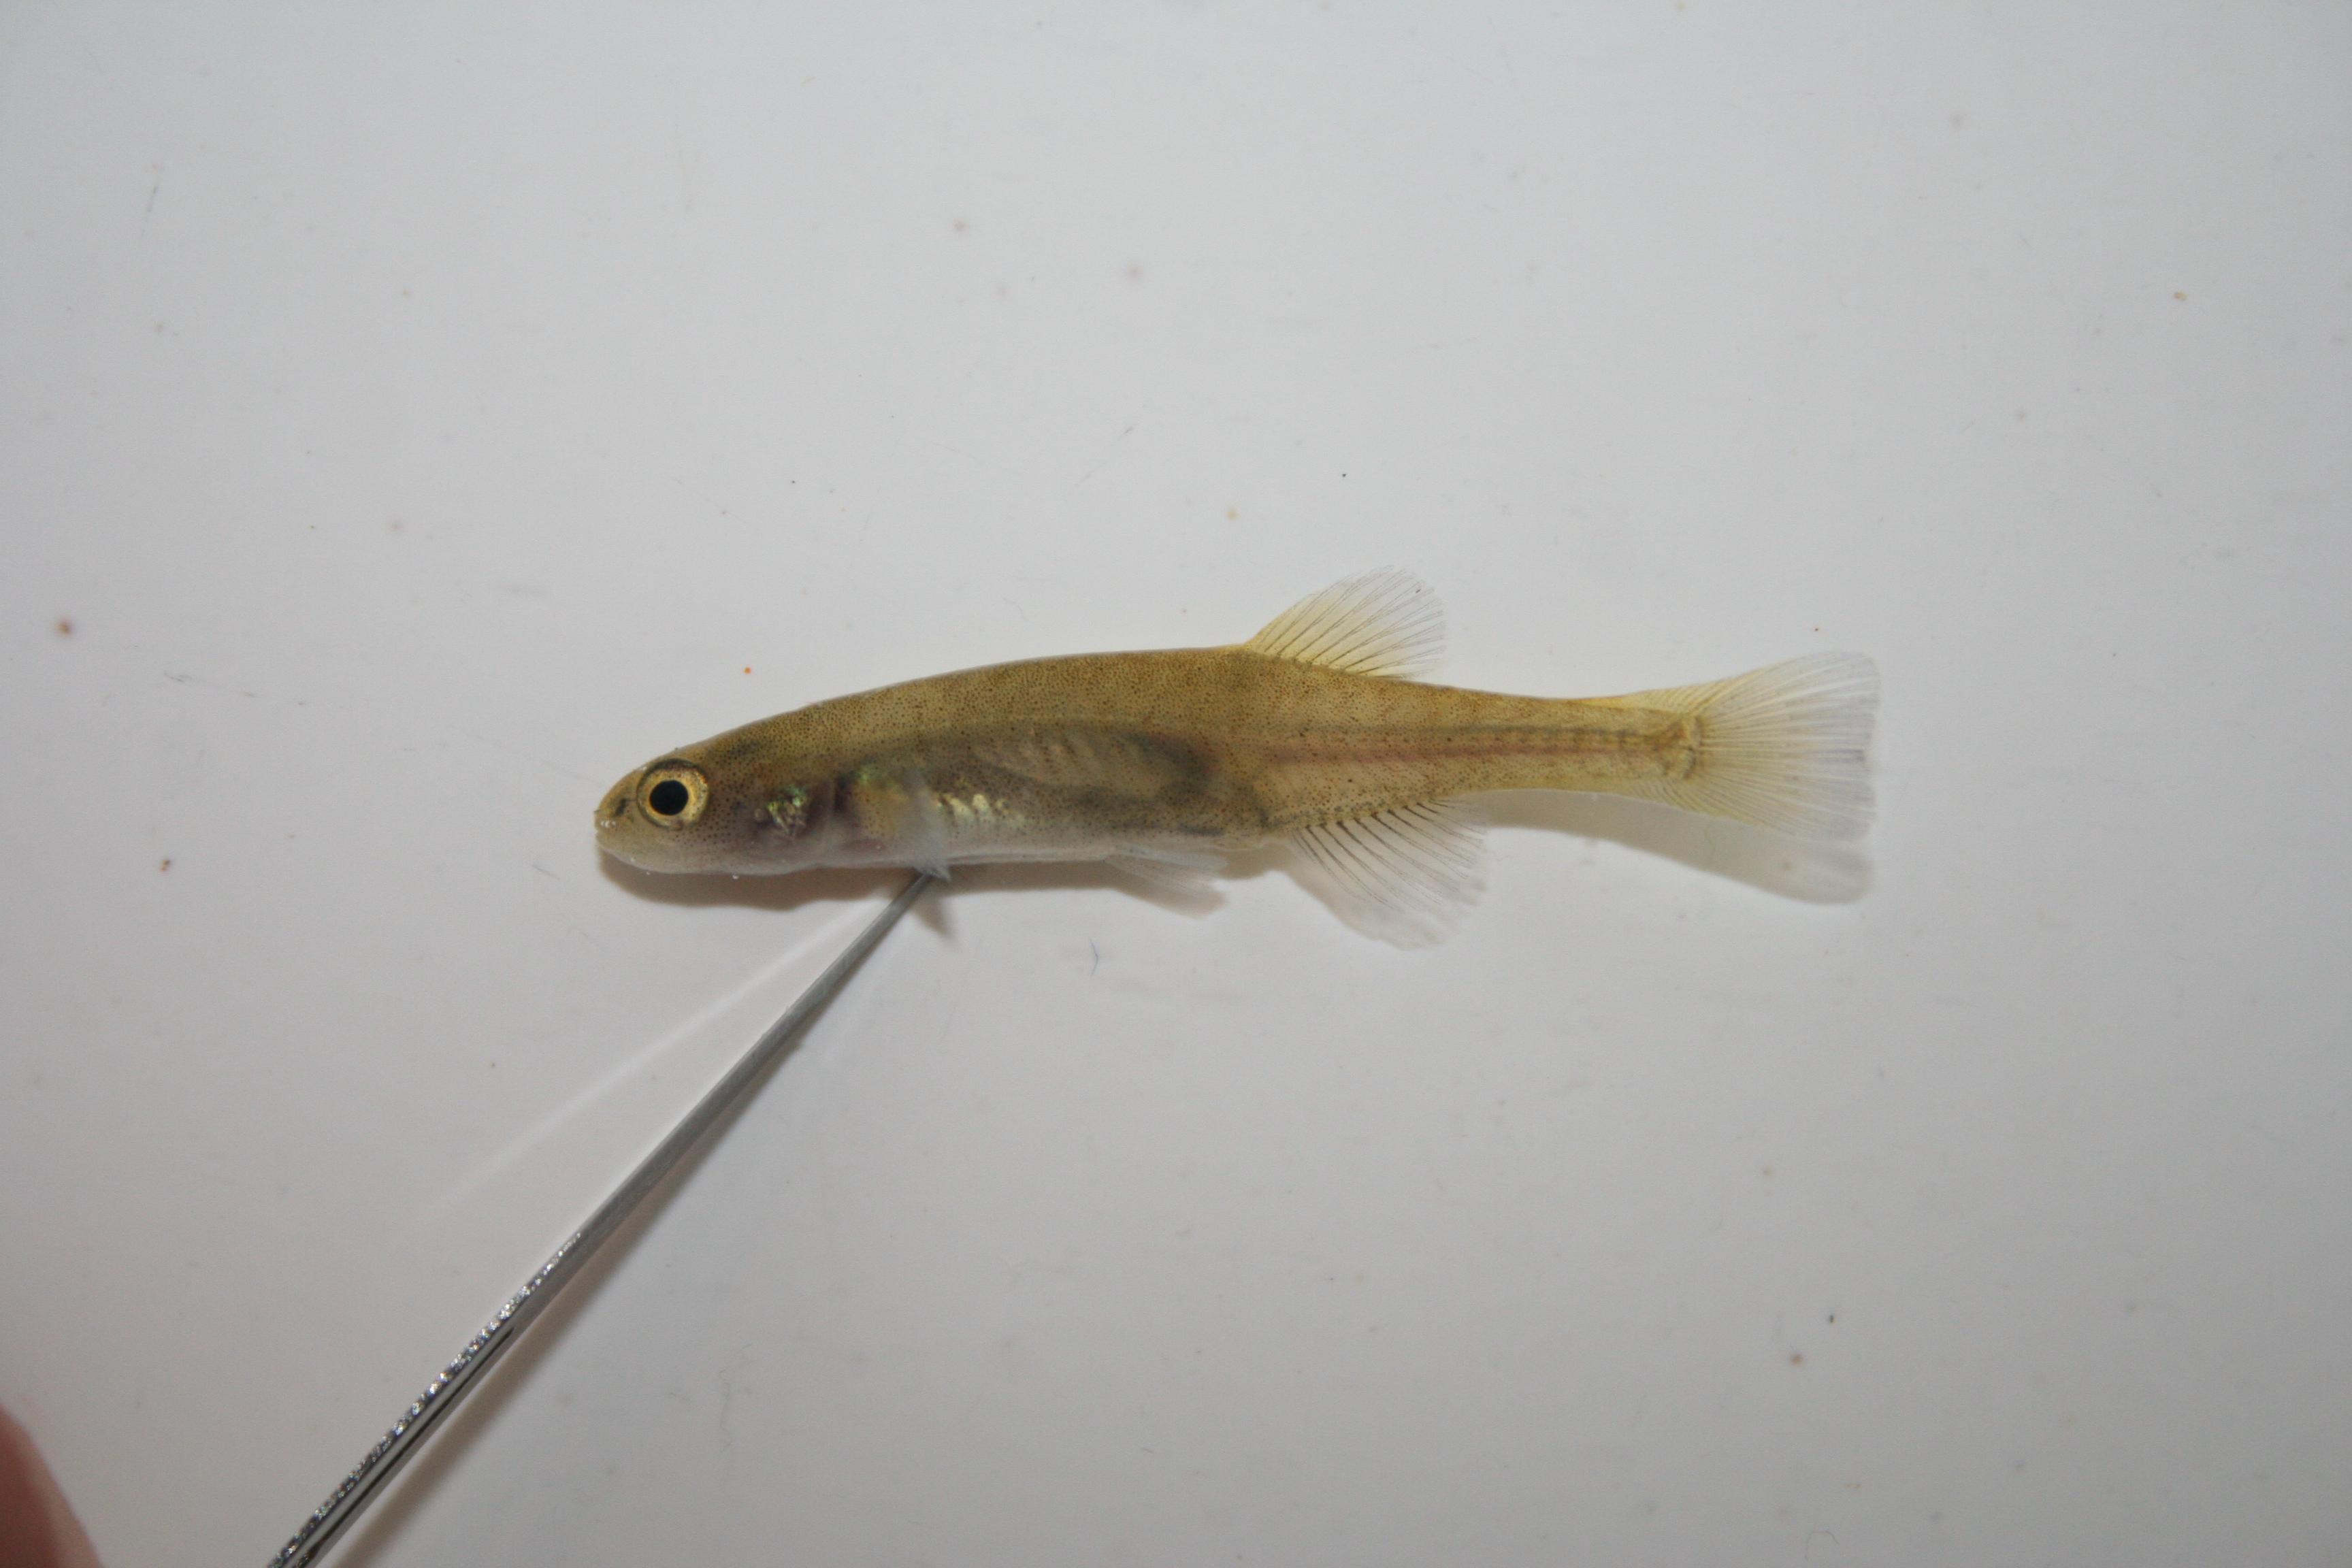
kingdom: Animalia
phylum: Chordata
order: Osmeriformes
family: Galaxiidae
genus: Galaxias
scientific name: Galaxias
